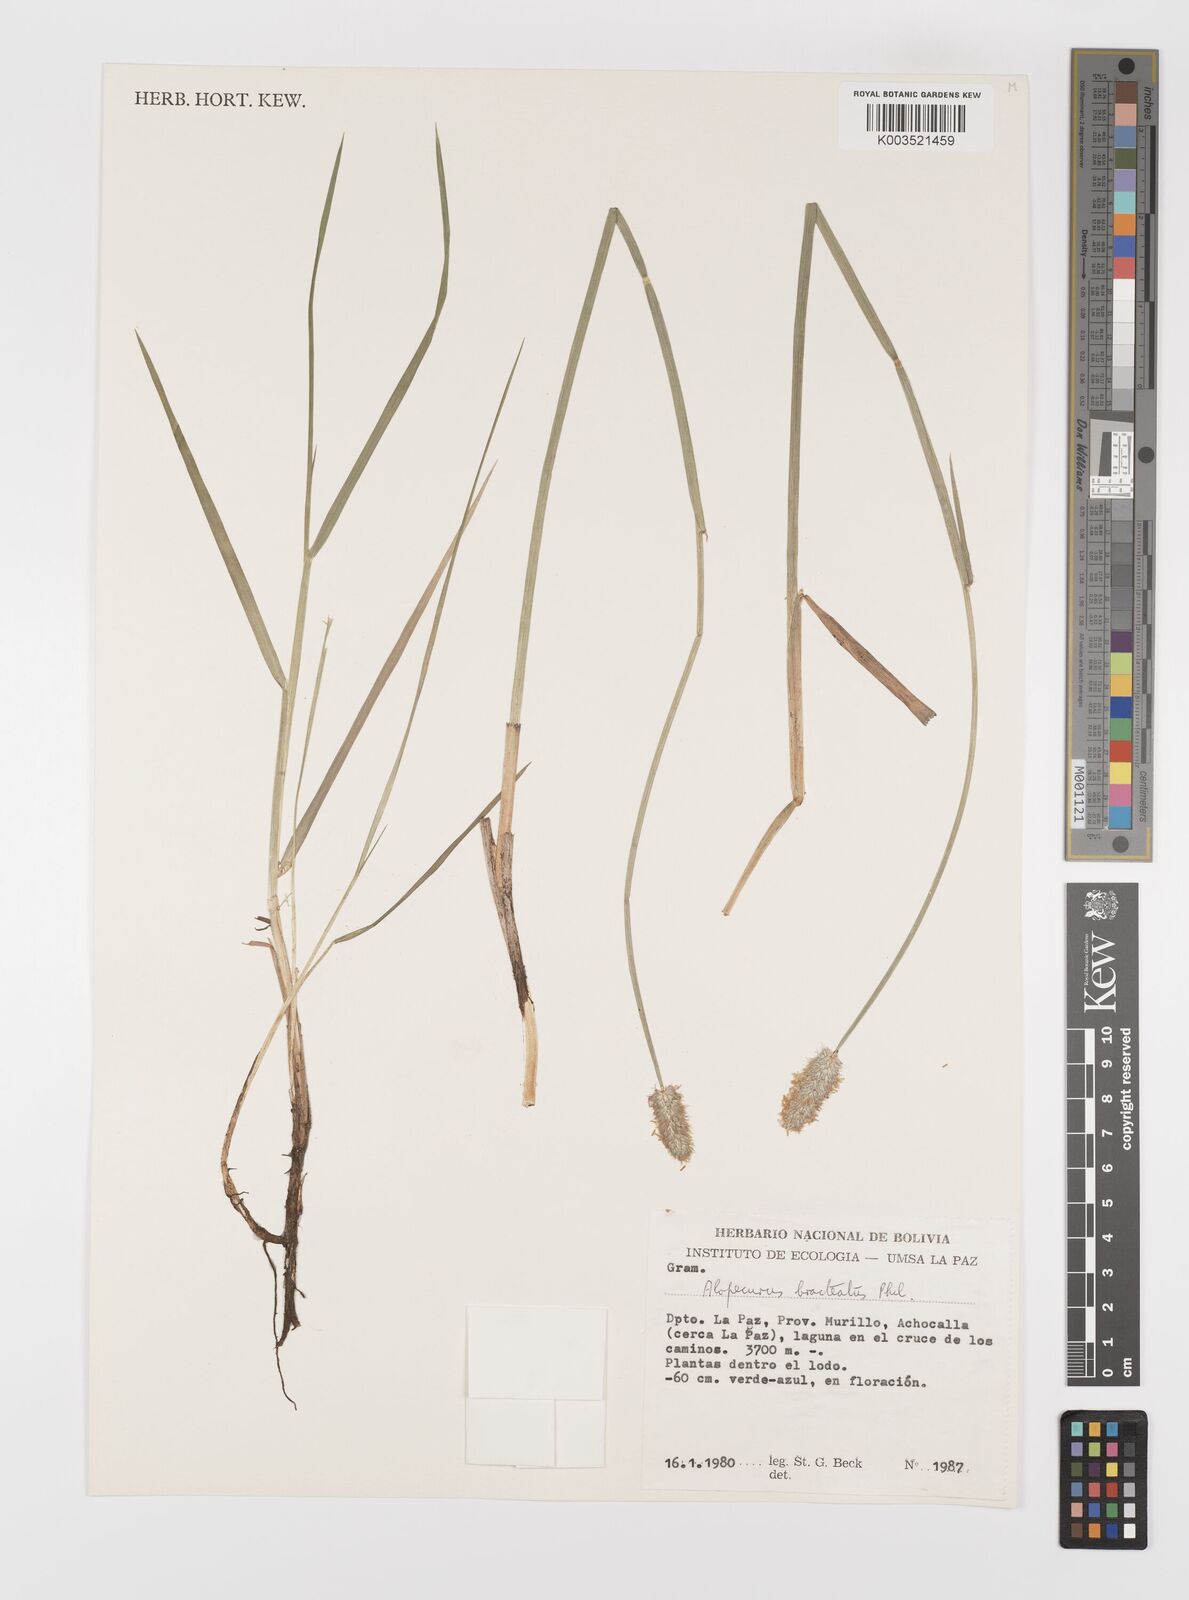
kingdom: Plantae
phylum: Tracheophyta
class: Liliopsida
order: Poales
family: Poaceae
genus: Alopecurus
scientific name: Alopecurus magellanicus
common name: Alpine foxtail
